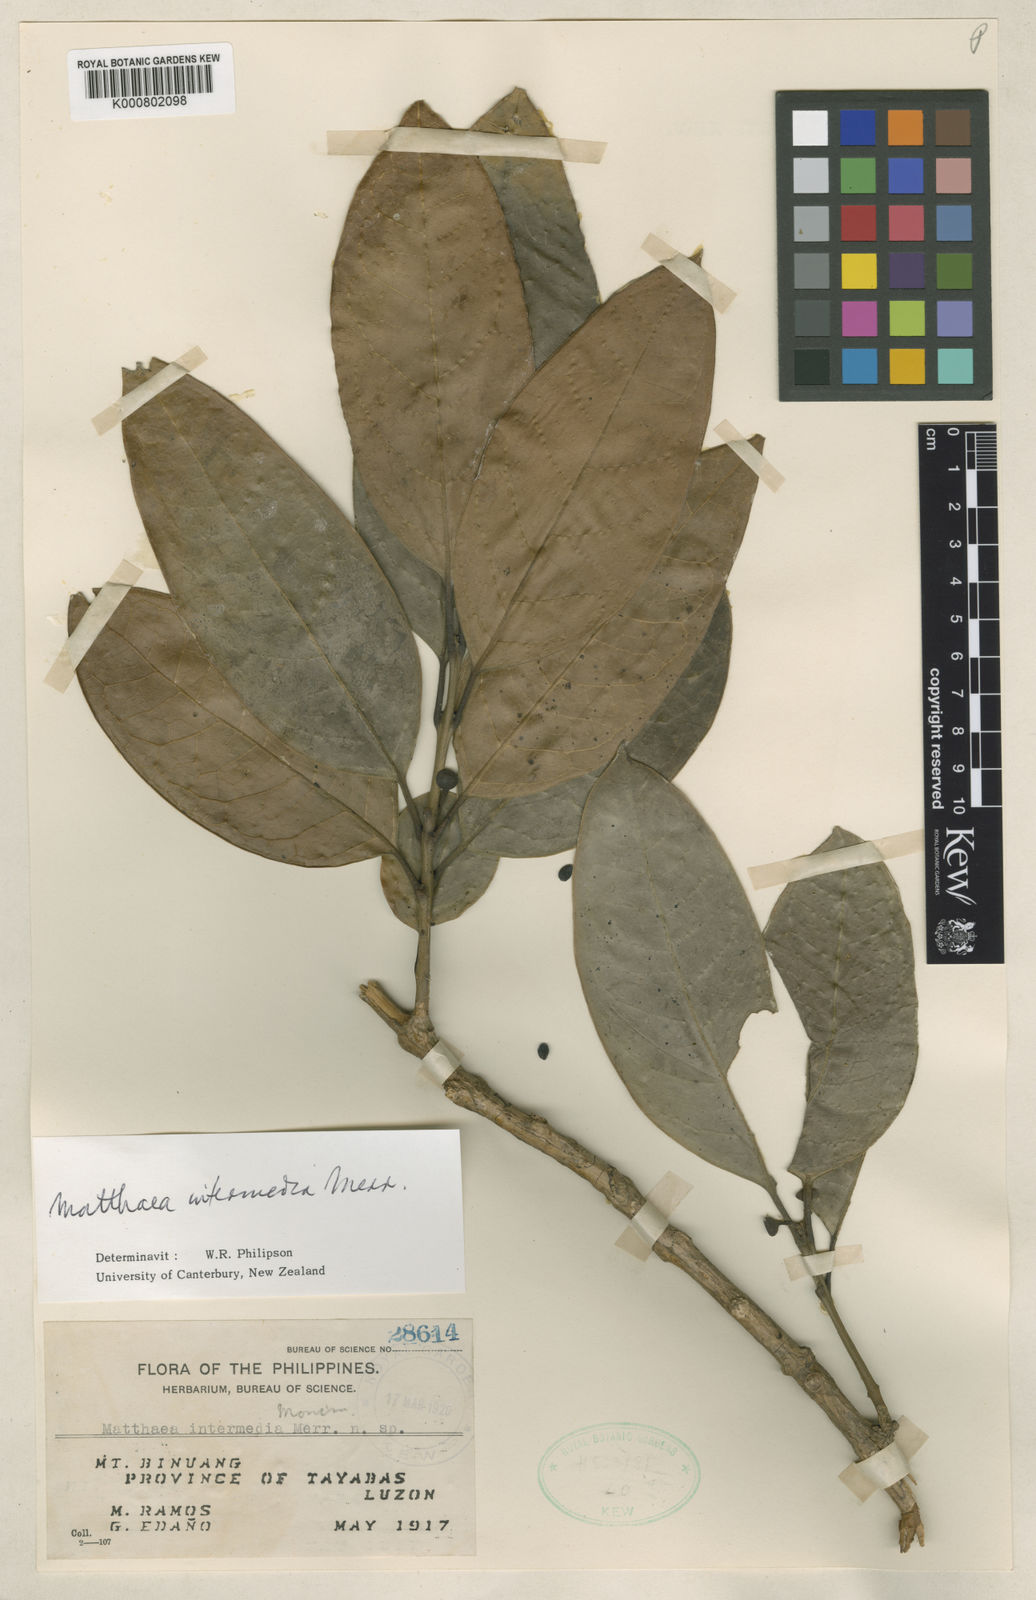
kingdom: Plantae
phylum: Tracheophyta
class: Magnoliopsida
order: Laurales
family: Monimiaceae
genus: Matthaea
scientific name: Matthaea intermedia
